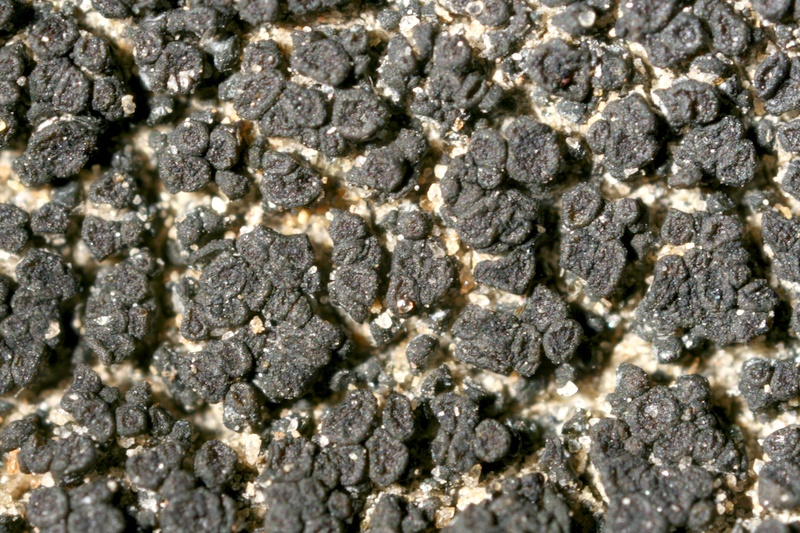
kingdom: Fungi
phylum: Ascomycota
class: Lichinomycetes
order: Lichinales
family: Lichinaceae
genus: Psorotichia
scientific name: Psorotichia schaereri
